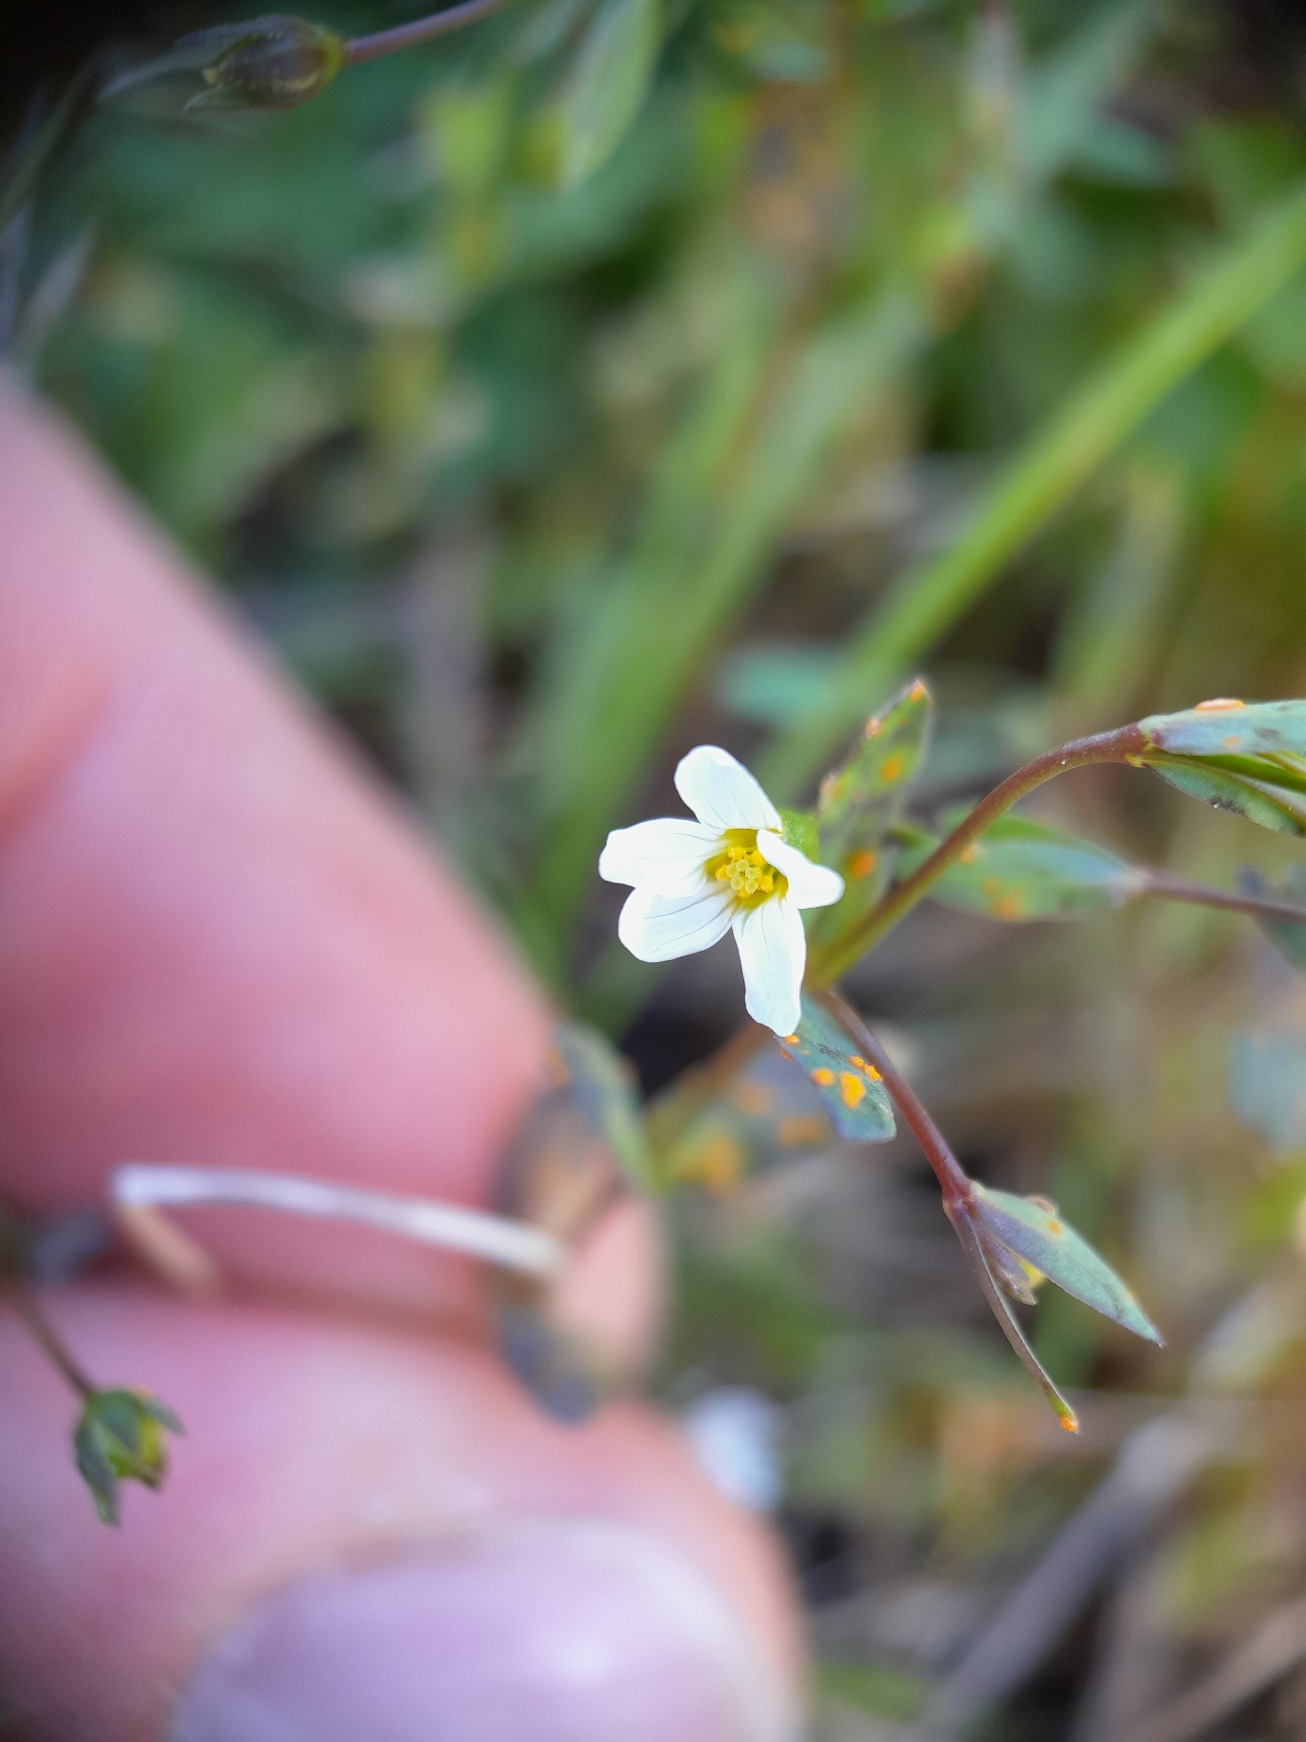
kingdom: Plantae
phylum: Tracheophyta
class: Magnoliopsida
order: Malpighiales
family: Linaceae
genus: Linum
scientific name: Linum catharticum
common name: Vild hør
